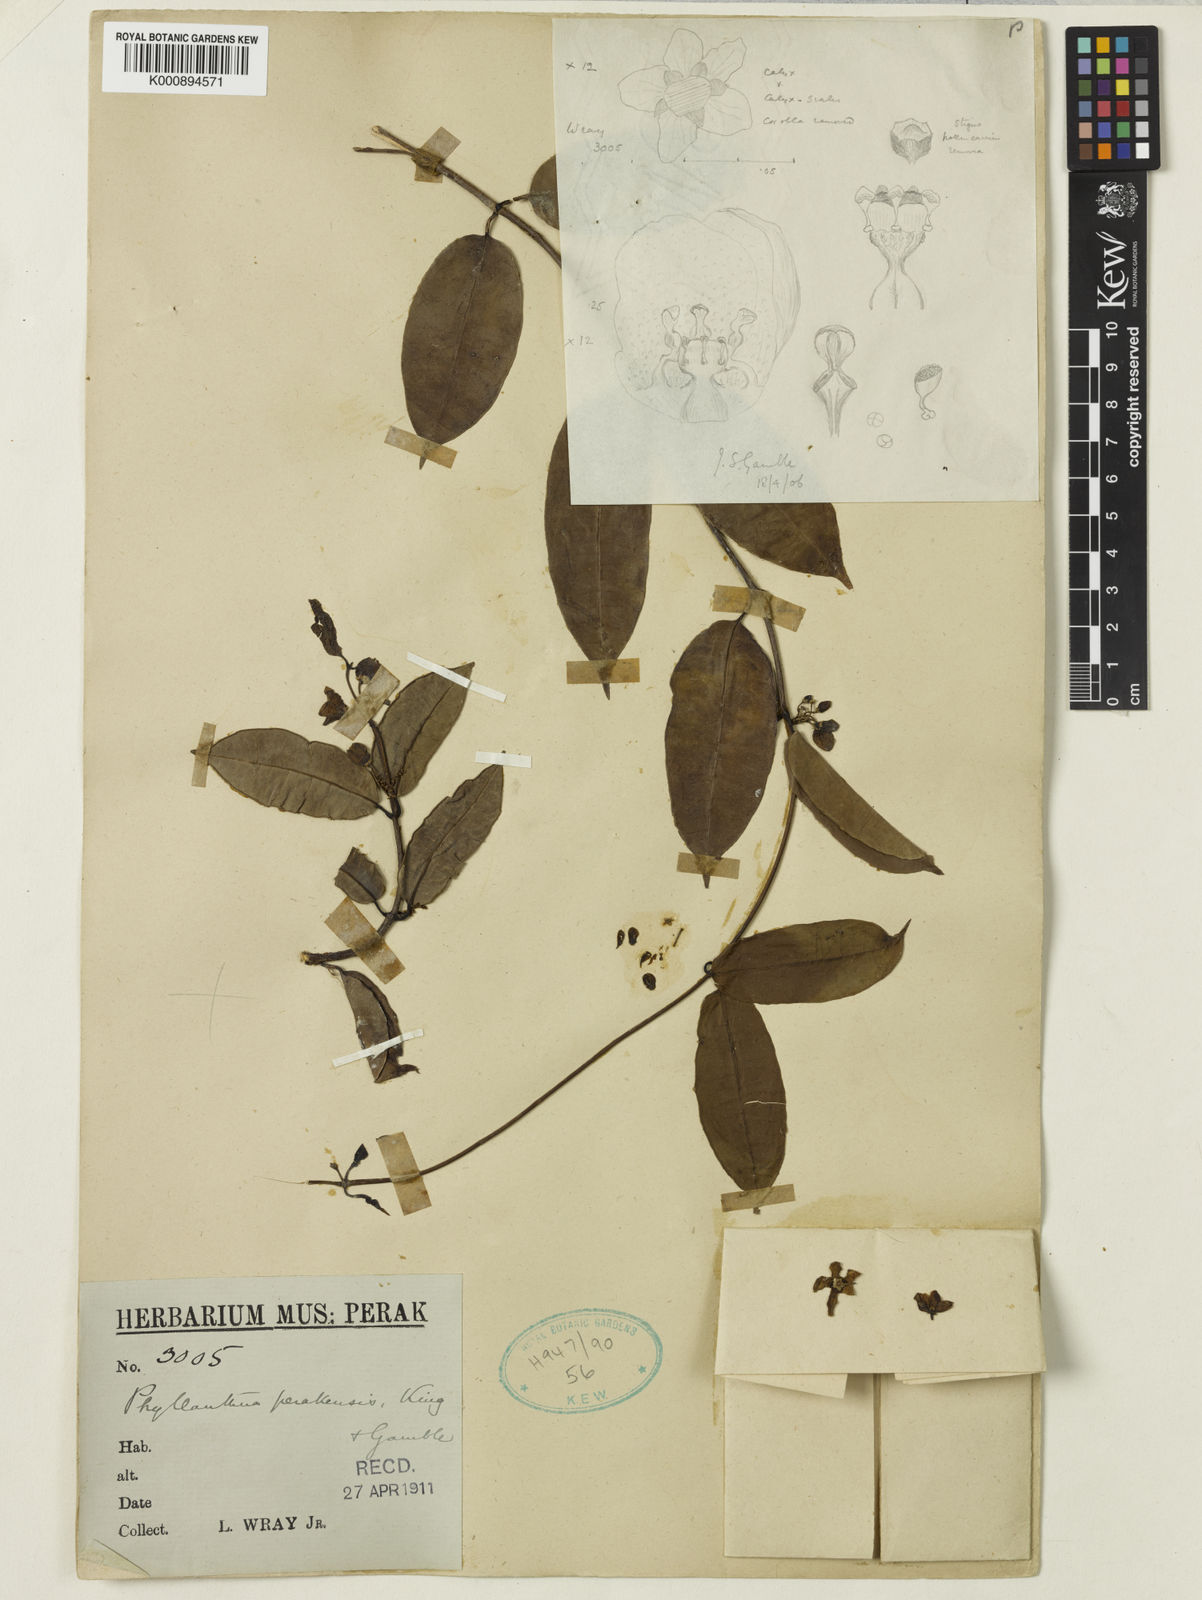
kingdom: Plantae
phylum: Tracheophyta
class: Magnoliopsida
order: Gentianales
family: Apocynaceae
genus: Phyllanthera
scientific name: Phyllanthera perakensis
